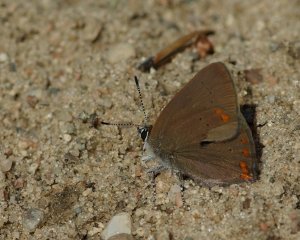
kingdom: Animalia
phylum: Arthropoda
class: Insecta
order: Lepidoptera
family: Lycaenidae
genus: Harkenclenus
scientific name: Harkenclenus titus
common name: Coral Hairstreak
